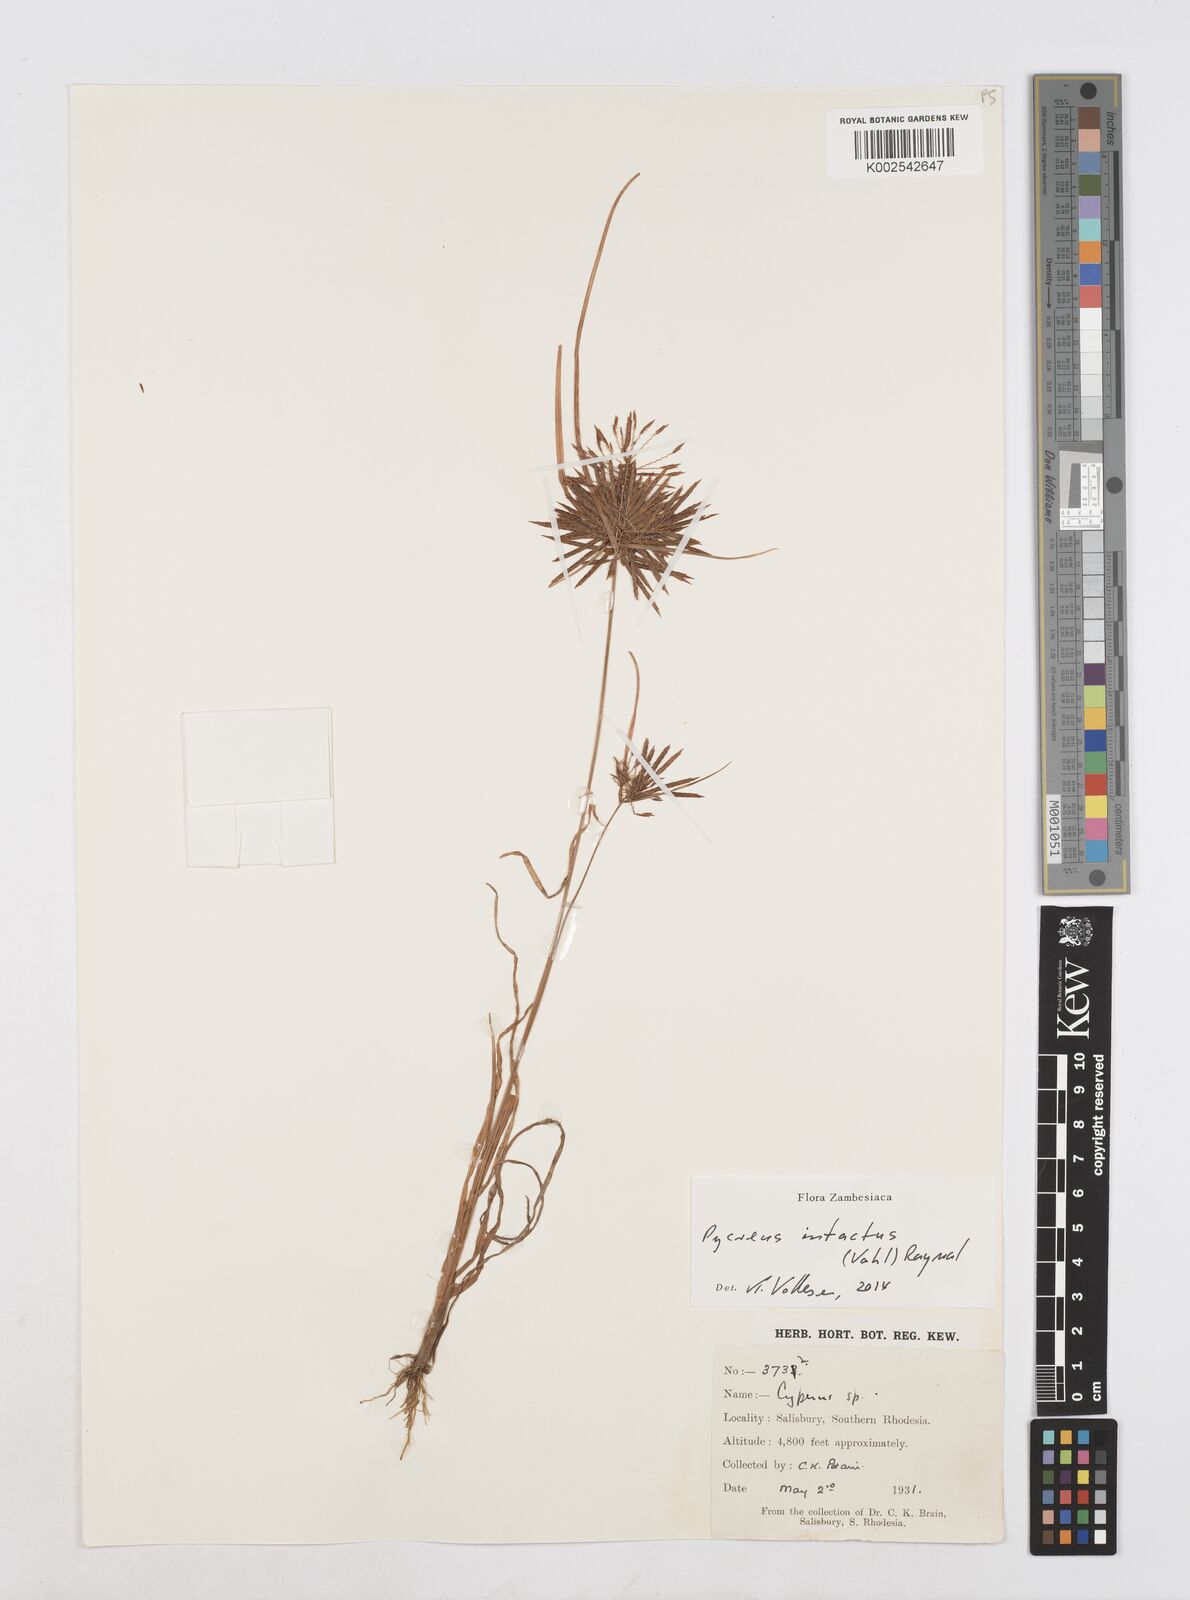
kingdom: Plantae
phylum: Tracheophyta
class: Liliopsida
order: Poales
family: Cyperaceae
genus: Cyperus
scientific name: Cyperus intactus
